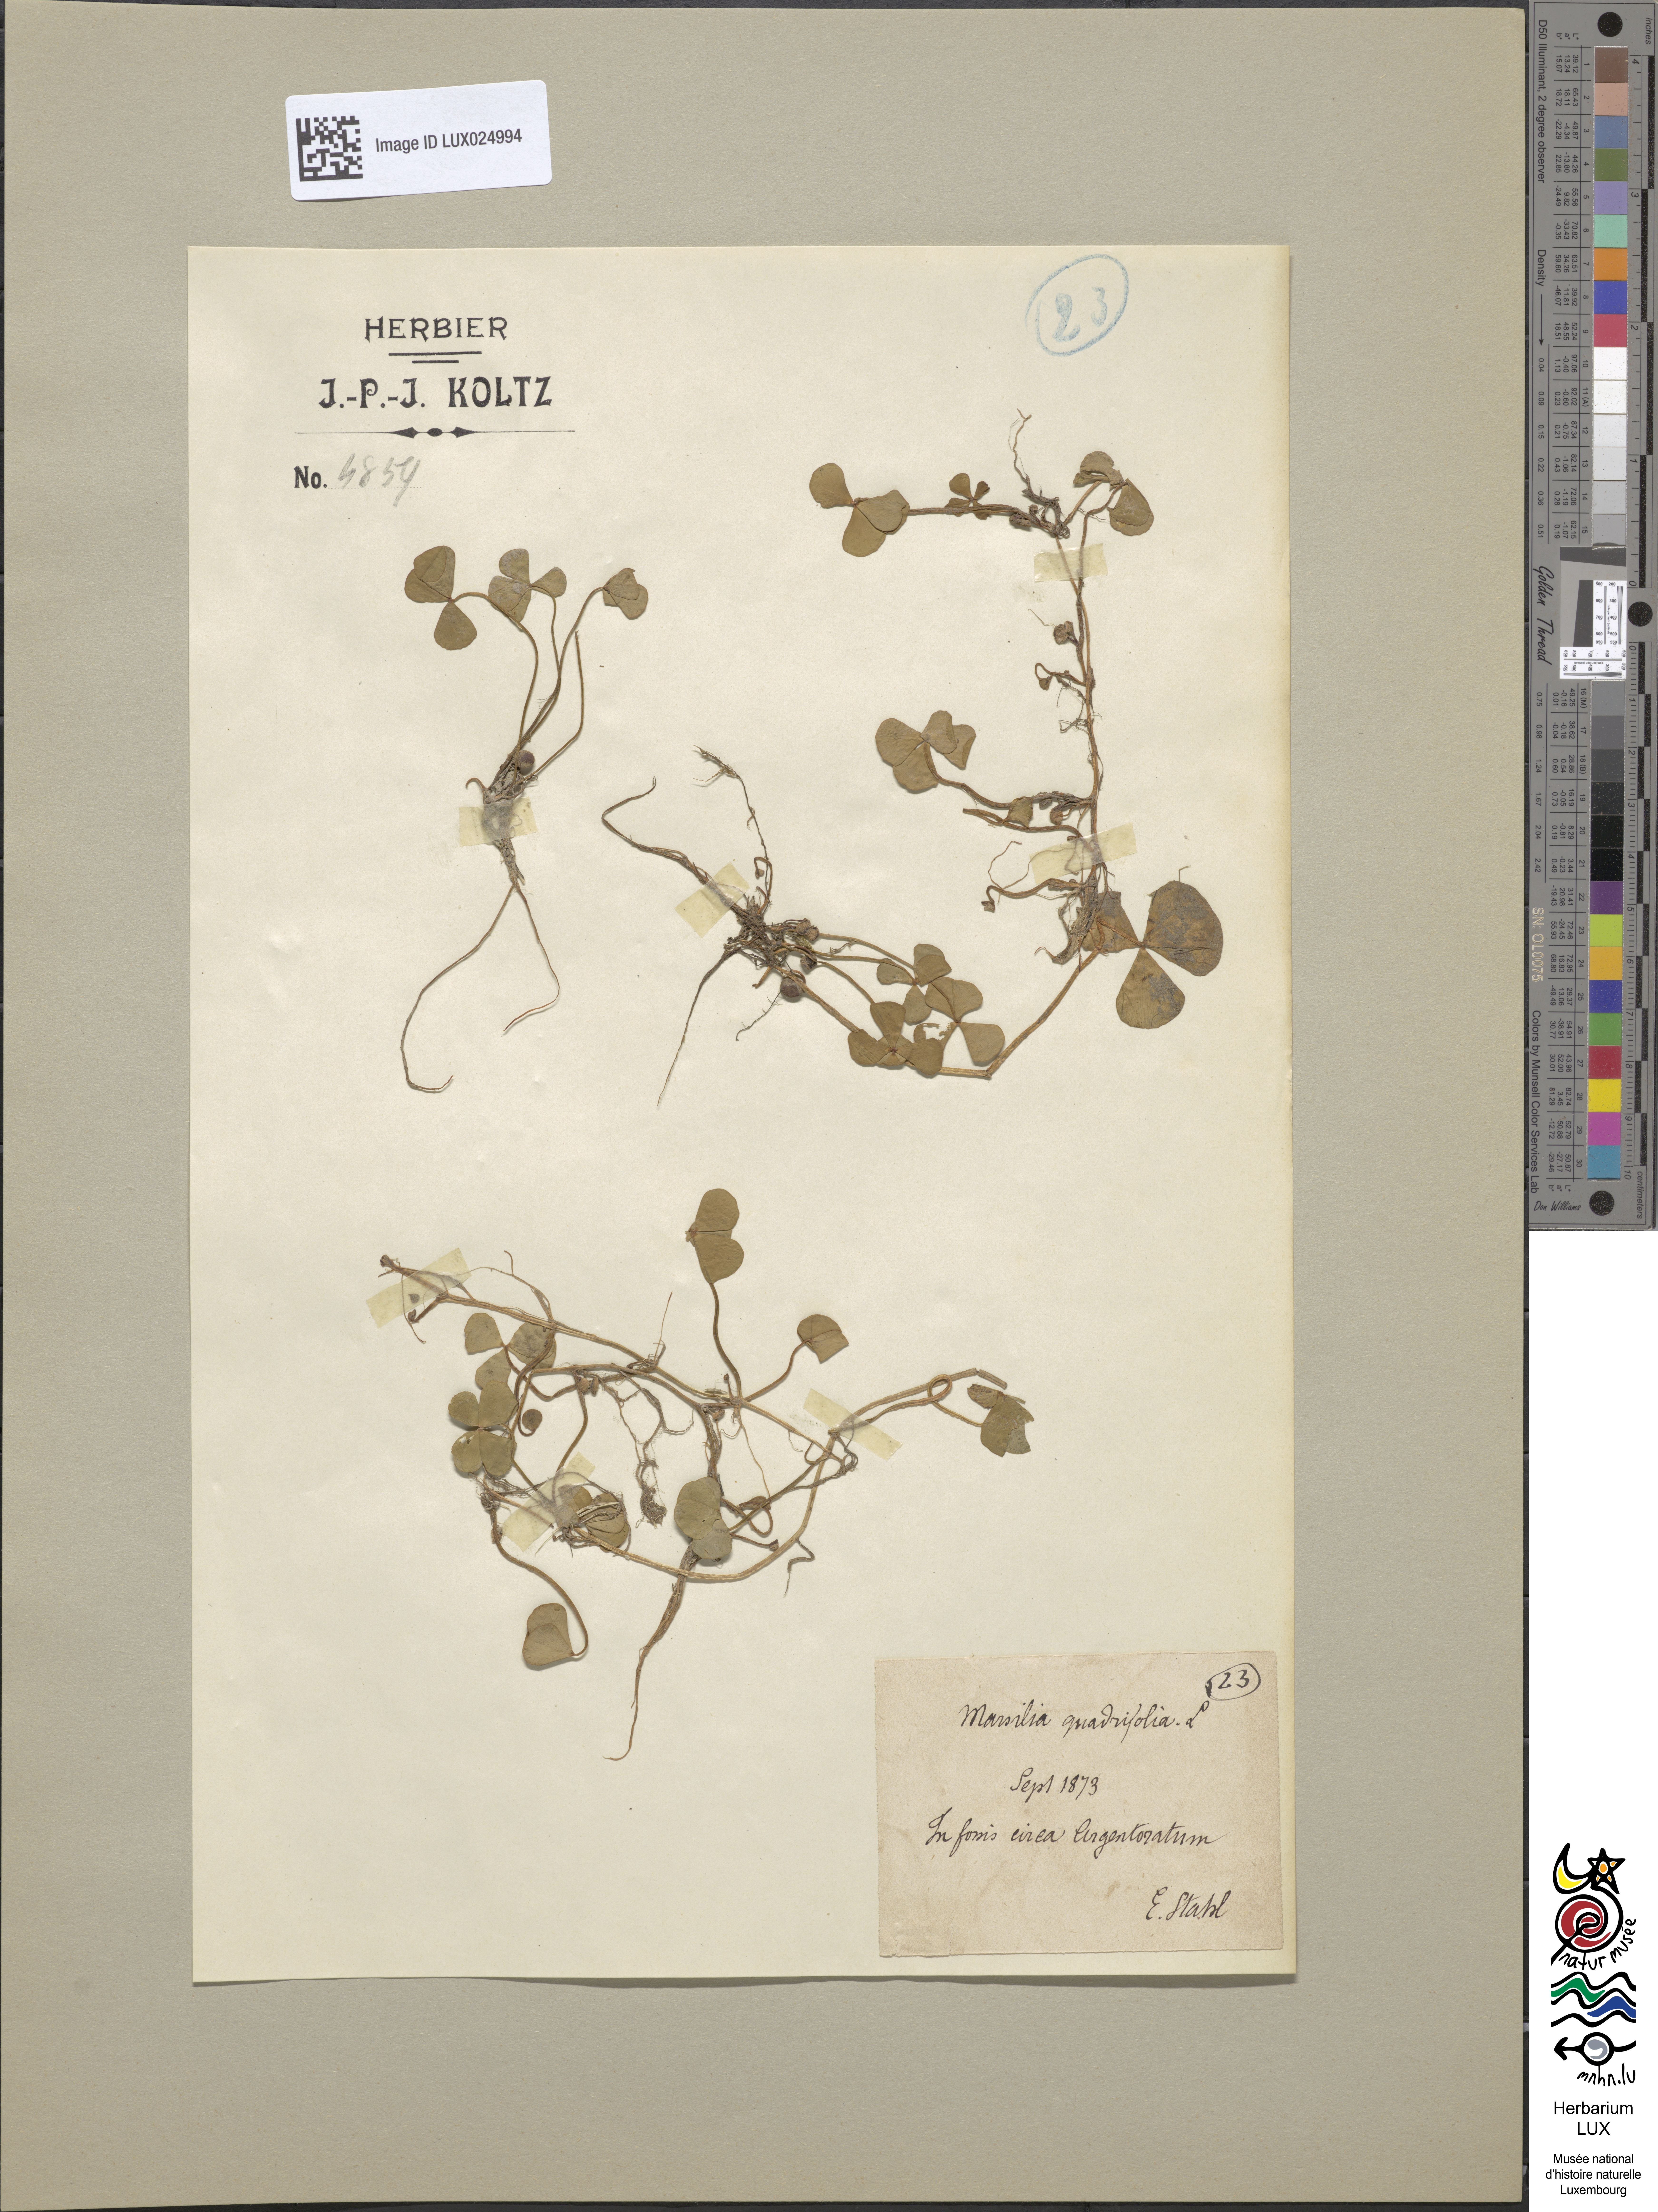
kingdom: Plantae
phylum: Tracheophyta
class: Polypodiopsida
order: Salviniales
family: Marsileaceae
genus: Marsilea
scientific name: Marsilea quadrifolia
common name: Water shamrock
